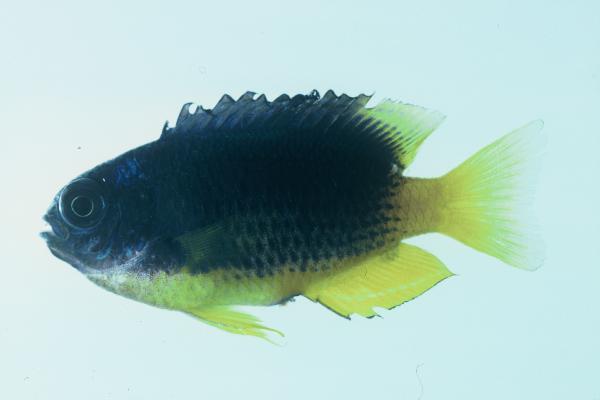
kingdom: Animalia
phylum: Chordata
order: Perciformes
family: Pomacentridae
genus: Pomacentrus
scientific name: Pomacentrus caeruleus
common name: Caerulean damsel
